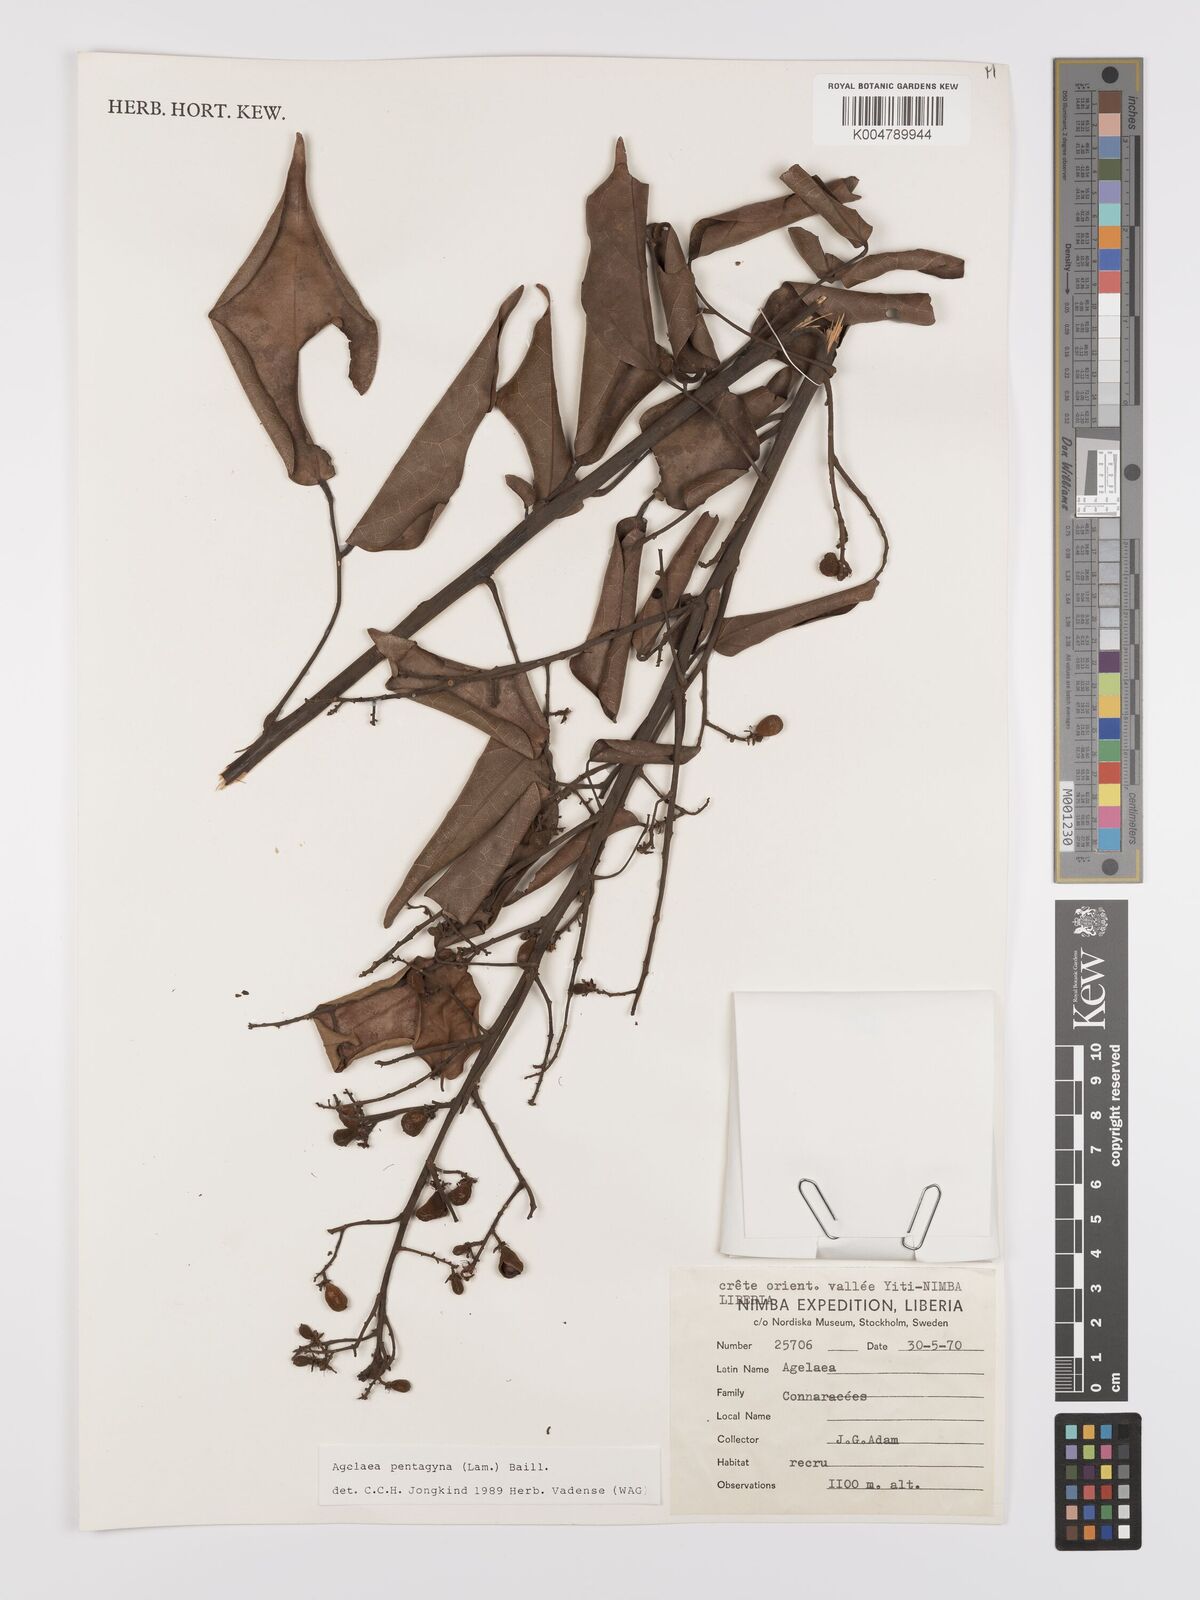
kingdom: Plantae
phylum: Tracheophyta
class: Magnoliopsida
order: Oxalidales
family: Connaraceae
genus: Agelaea
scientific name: Agelaea pentagyna
